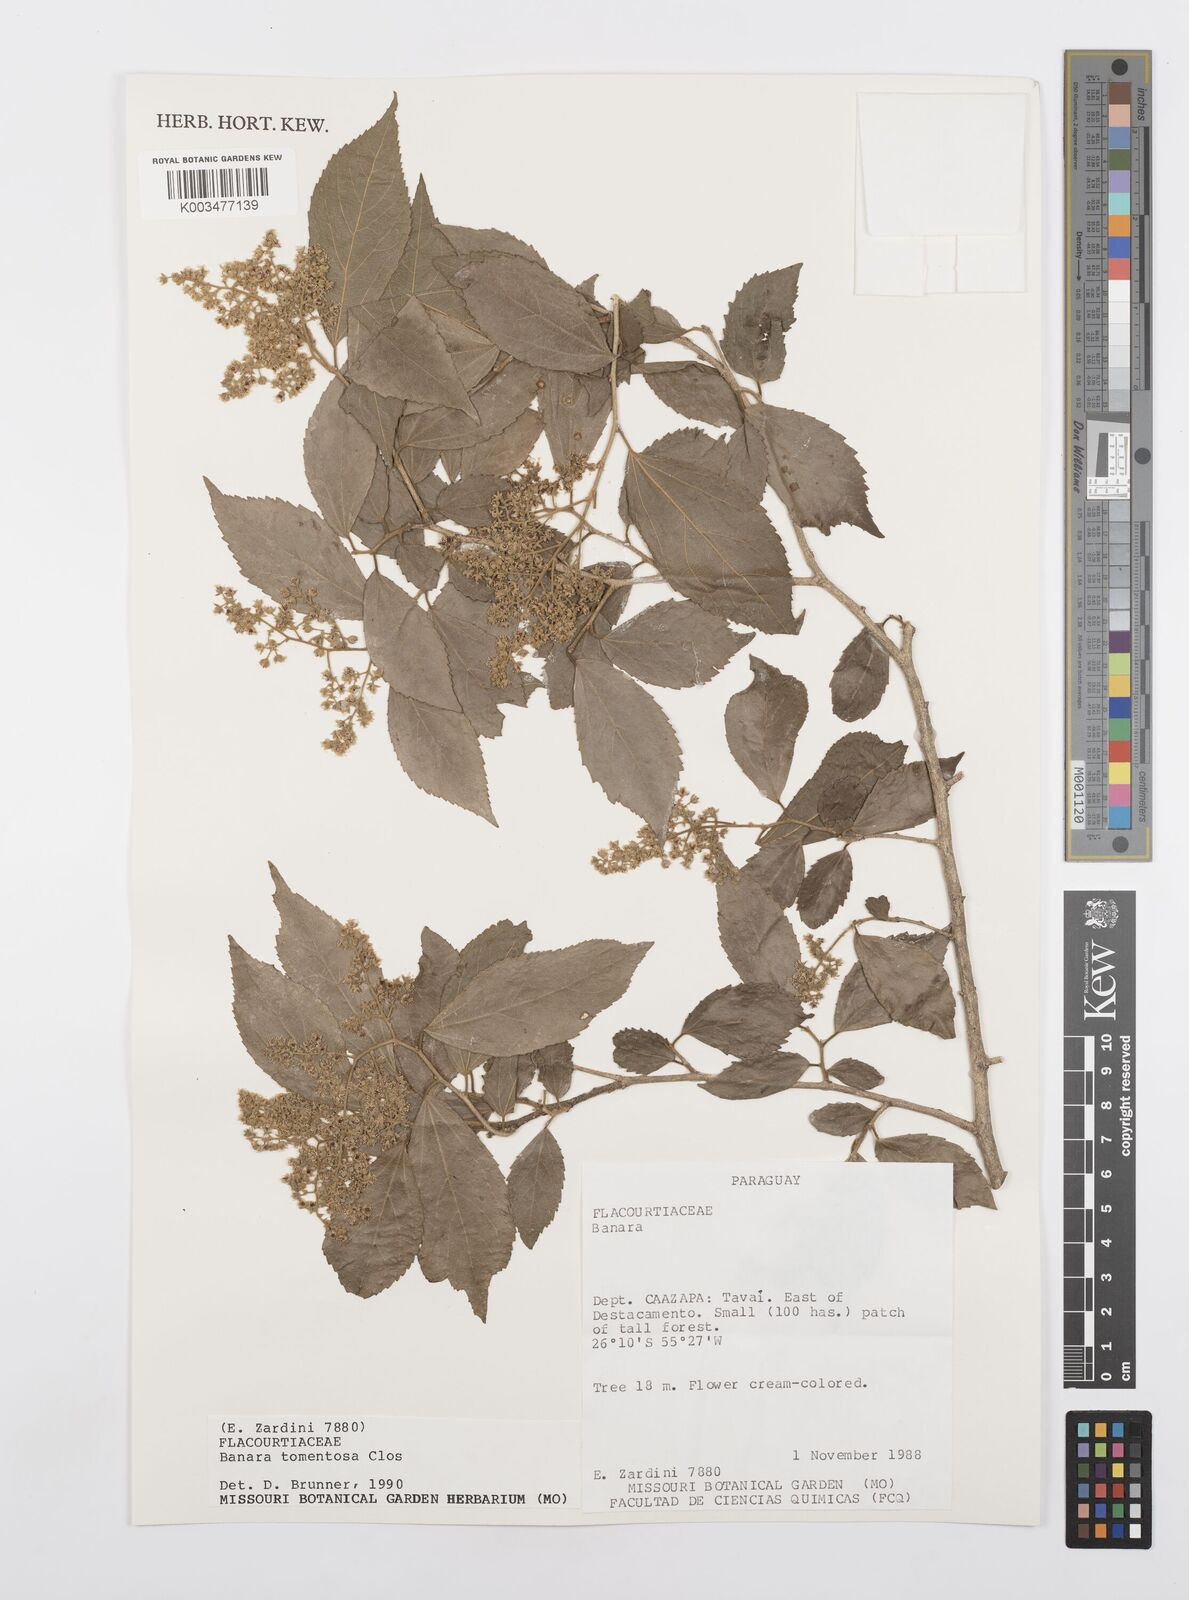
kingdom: Plantae
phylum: Tracheophyta
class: Magnoliopsida
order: Malpighiales
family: Salicaceae
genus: Banara
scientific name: Banara tomentosa
